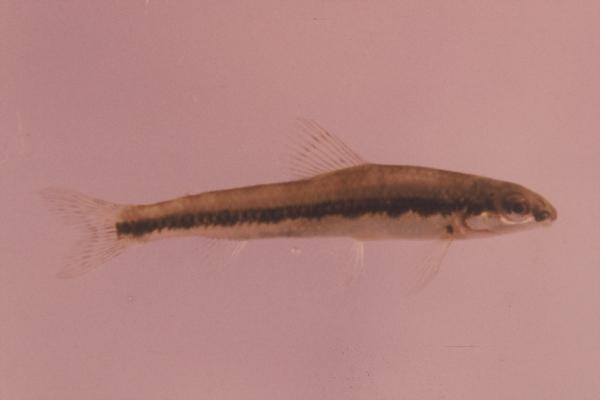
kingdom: Animalia
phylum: Chordata
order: Characiformes
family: Distichodontidae
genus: Nannocharax
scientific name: Nannocharax macropterus
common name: Broad-barred citharine
